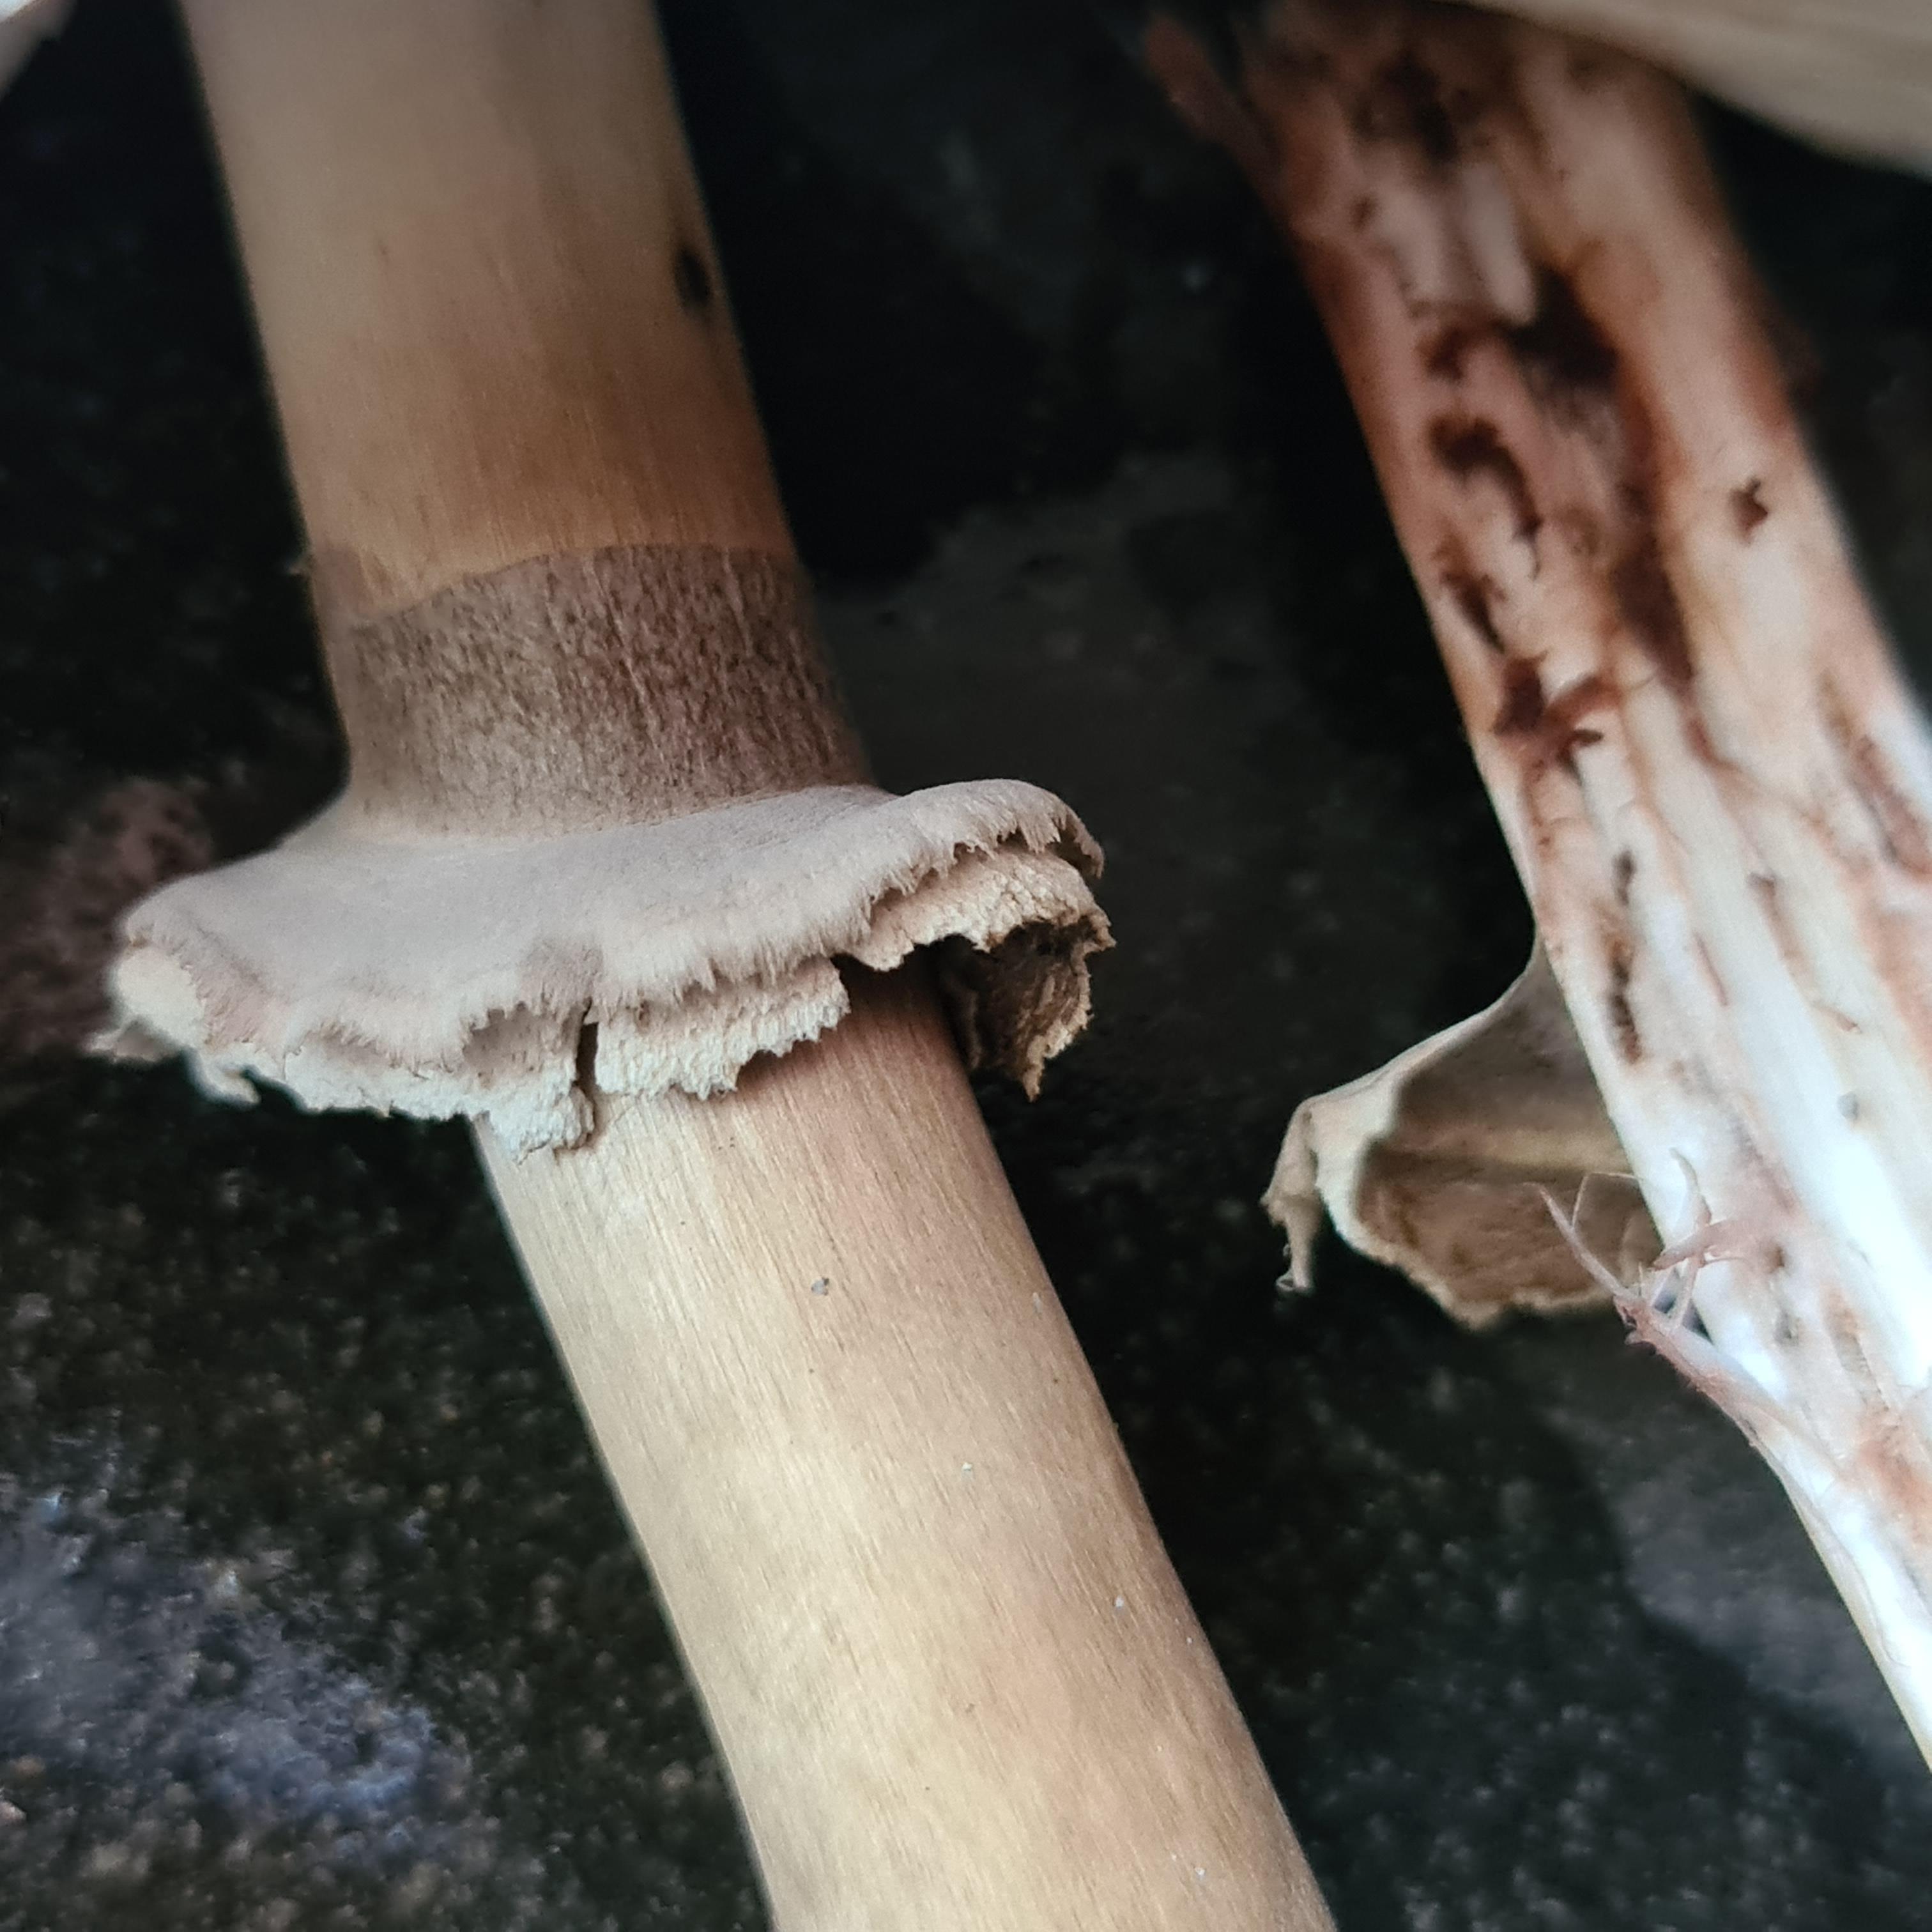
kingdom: Fungi
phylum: Basidiomycota
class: Agaricomycetes
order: Agaricales
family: Agaricaceae
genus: Chlorophyllum
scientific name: Chlorophyllum rhacodes
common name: ægte rabarberhat
